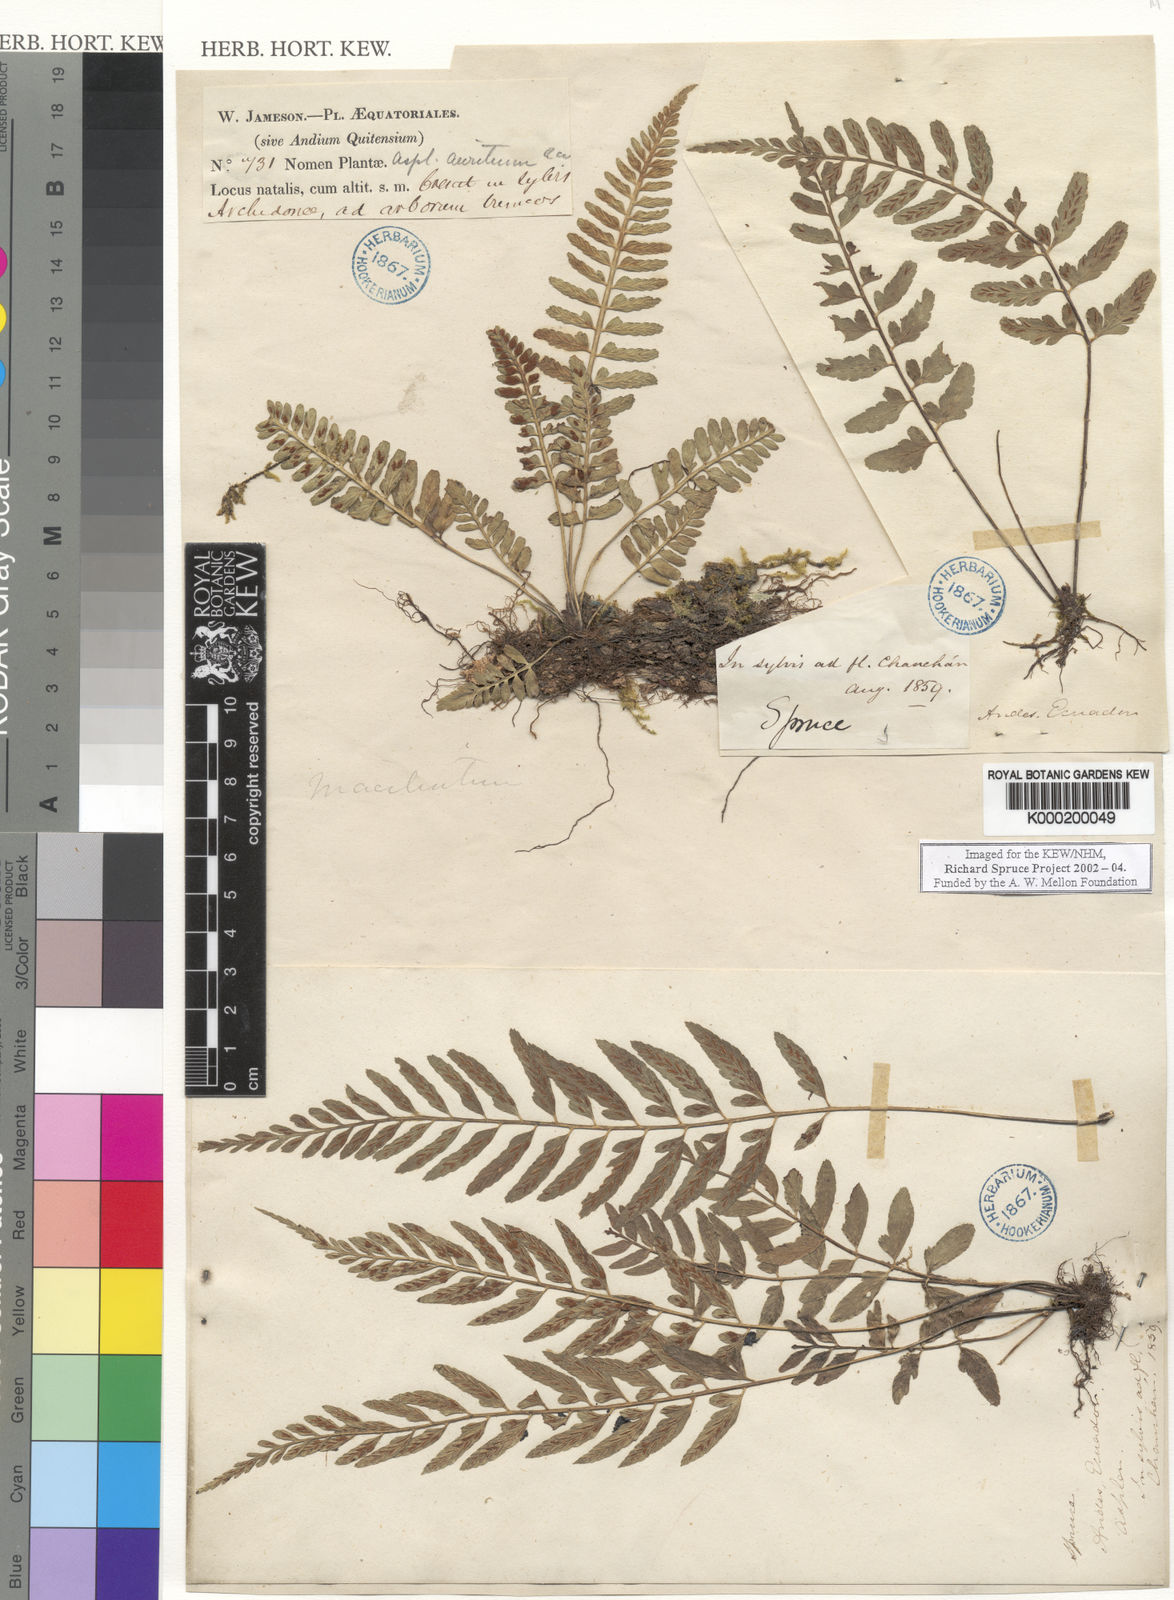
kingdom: Plantae
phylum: Tracheophyta
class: Polypodiopsida
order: Polypodiales
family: Aspleniaceae
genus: Asplenium
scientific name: Asplenium
